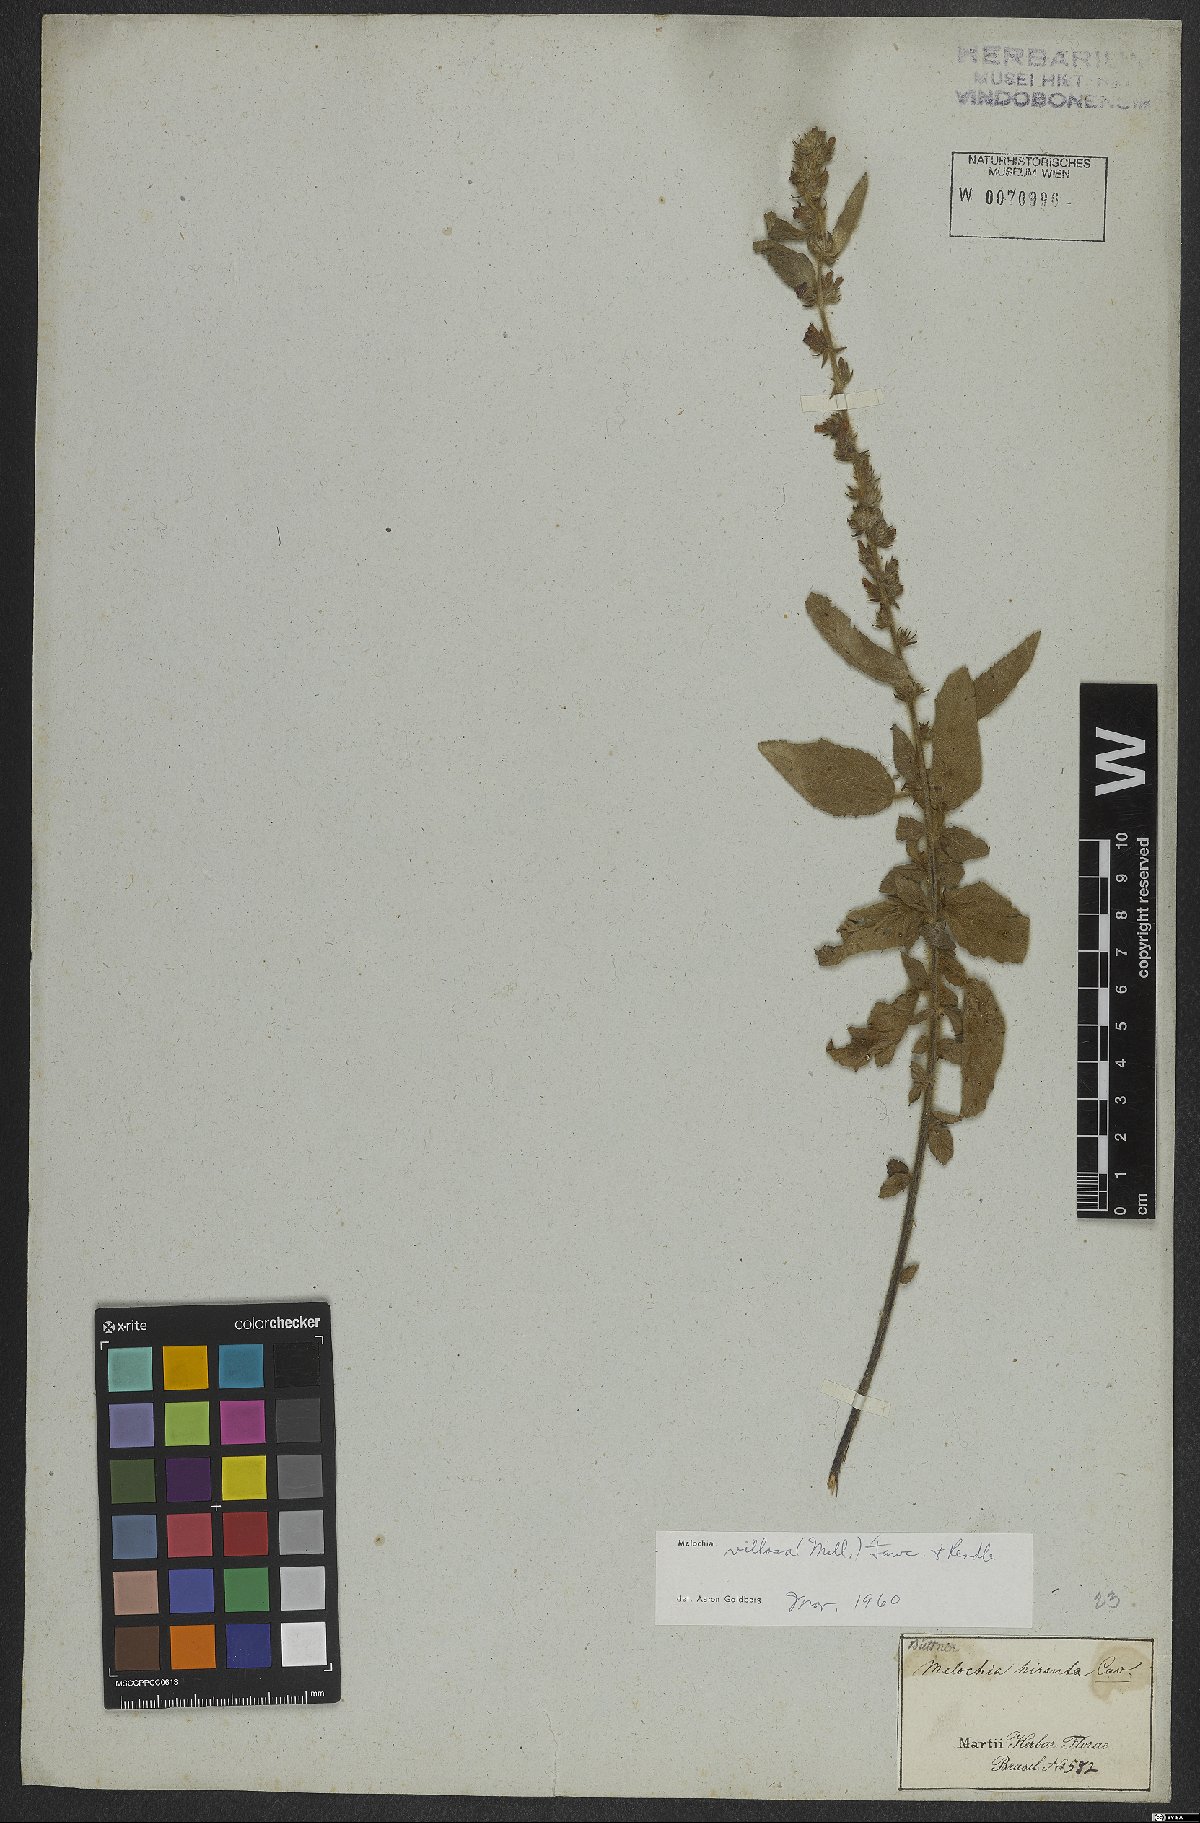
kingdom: Plantae
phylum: Tracheophyta
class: Magnoliopsida
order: Malvales
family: Malvaceae
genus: Melochia
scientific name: Melochia spicata
